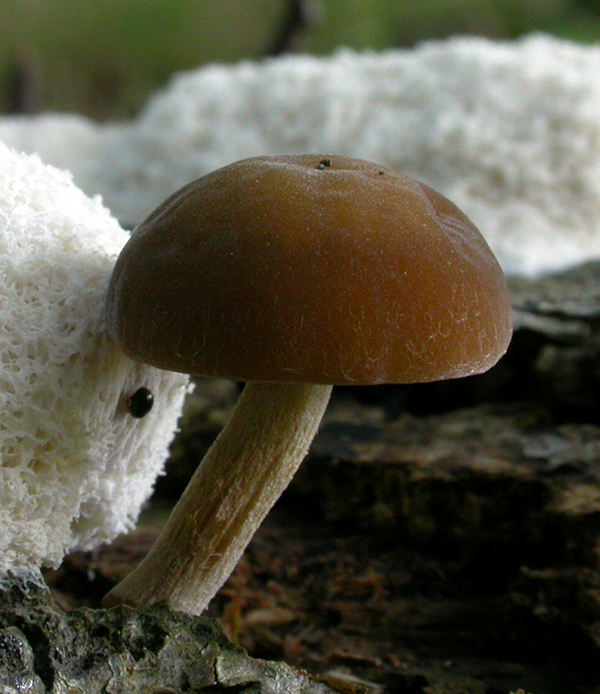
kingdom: Fungi
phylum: Basidiomycota
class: Agaricomycetes
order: Agaricales
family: Crepidotaceae
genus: Simocybe
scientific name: Simocybe sumptuosa
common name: stor skyggehat
